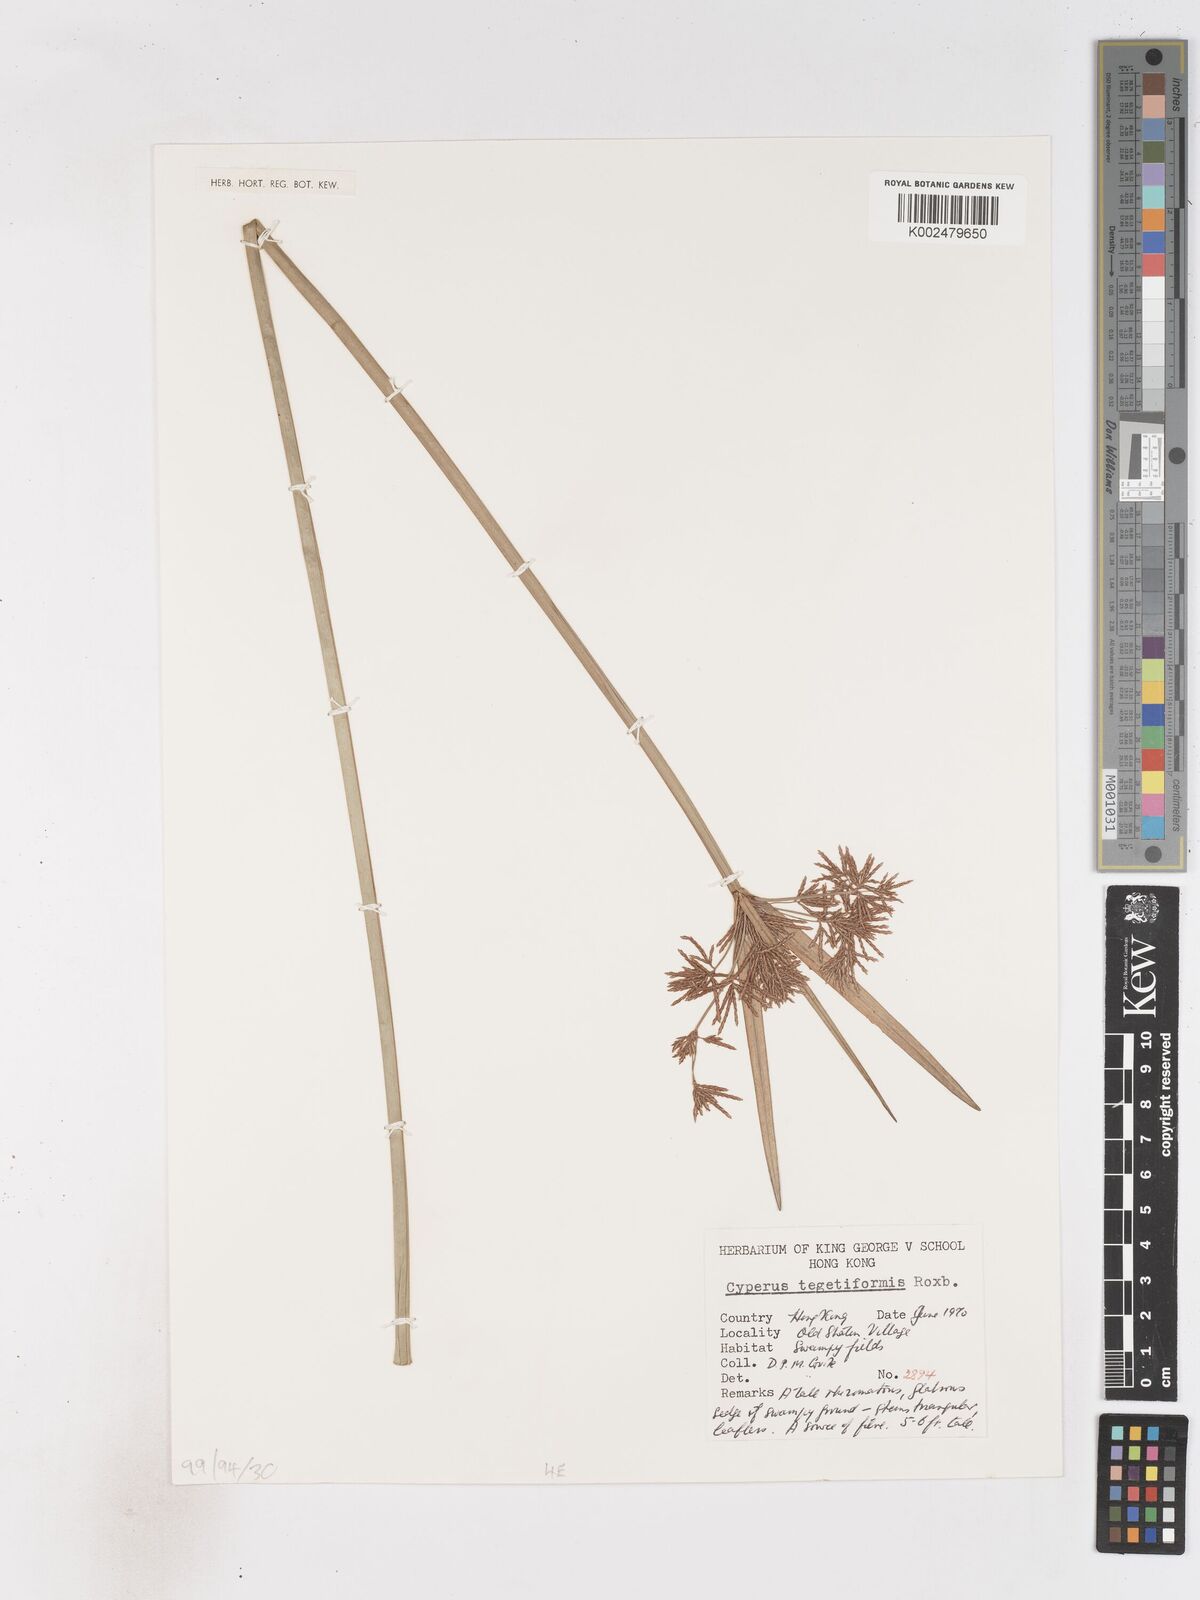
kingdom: Plantae
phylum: Tracheophyta
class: Liliopsida
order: Poales
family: Cyperaceae
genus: Cyperus
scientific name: Cyperus corymbosus
